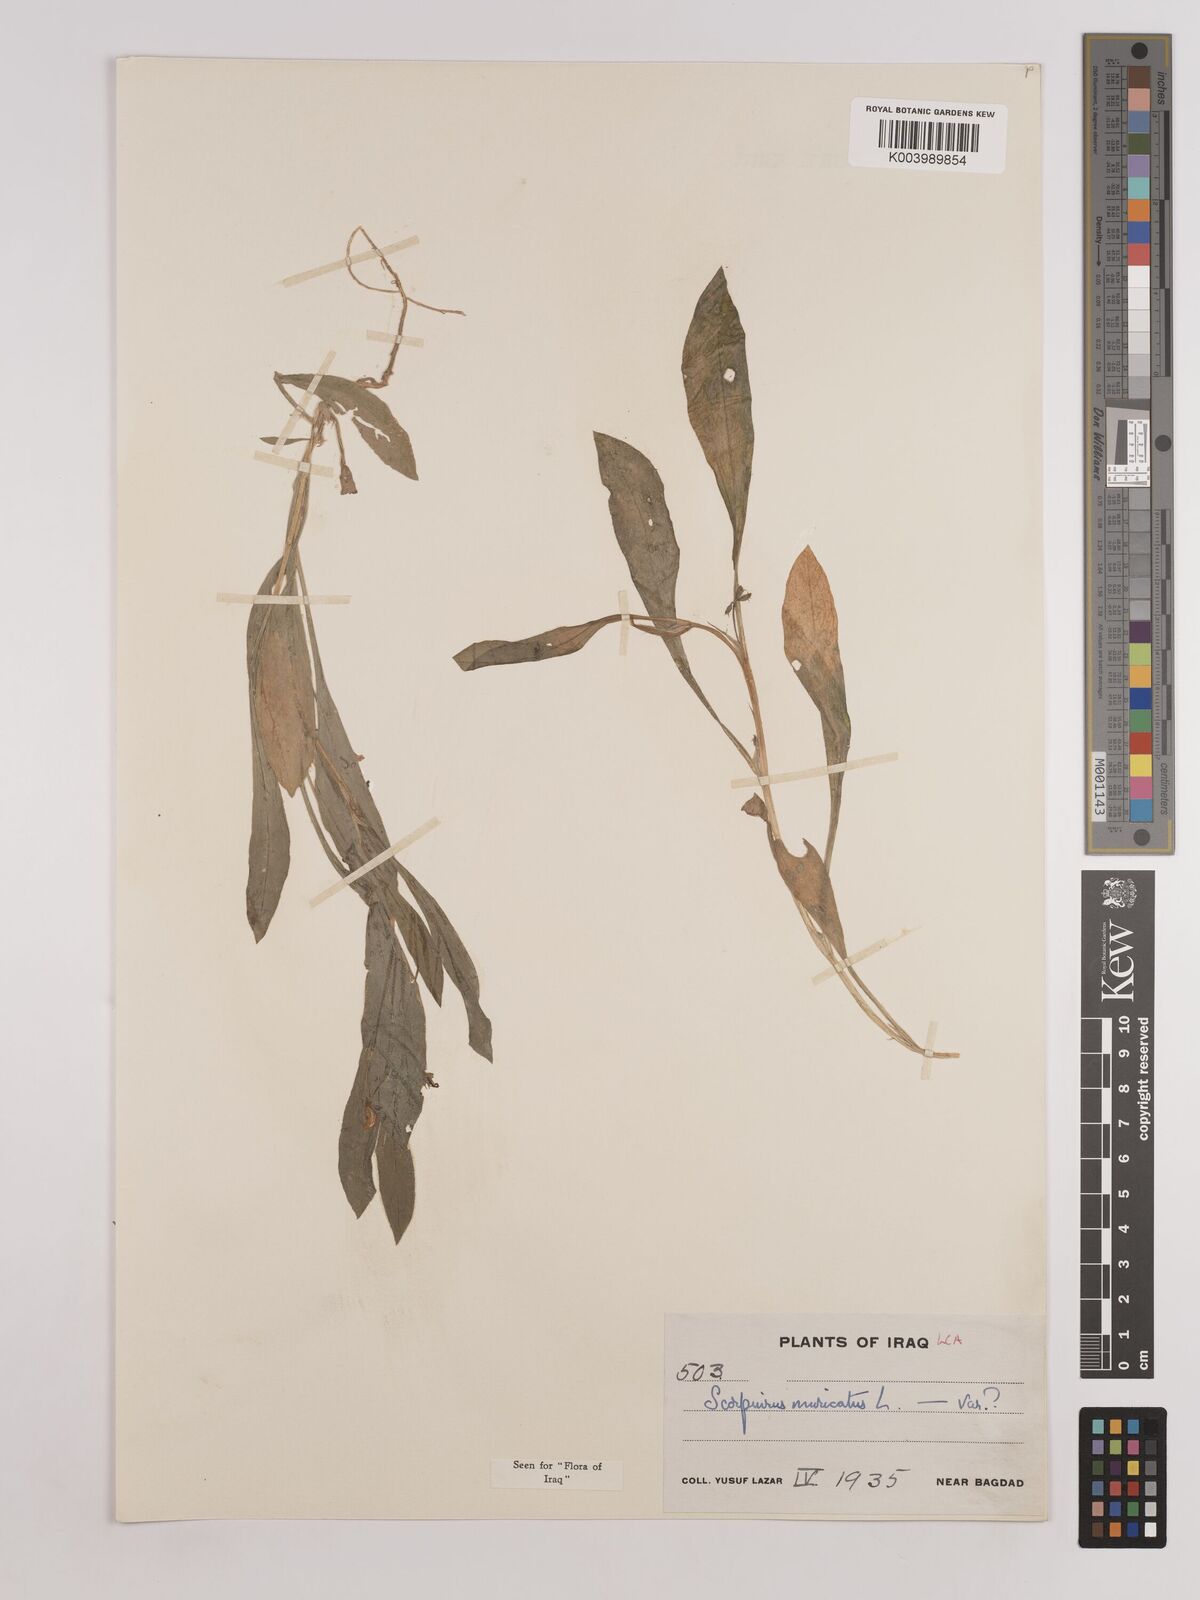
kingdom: Plantae
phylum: Tracheophyta
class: Magnoliopsida
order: Fabales
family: Fabaceae
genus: Scorpiurus
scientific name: Scorpiurus muricatus
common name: Caterpillar-plant
